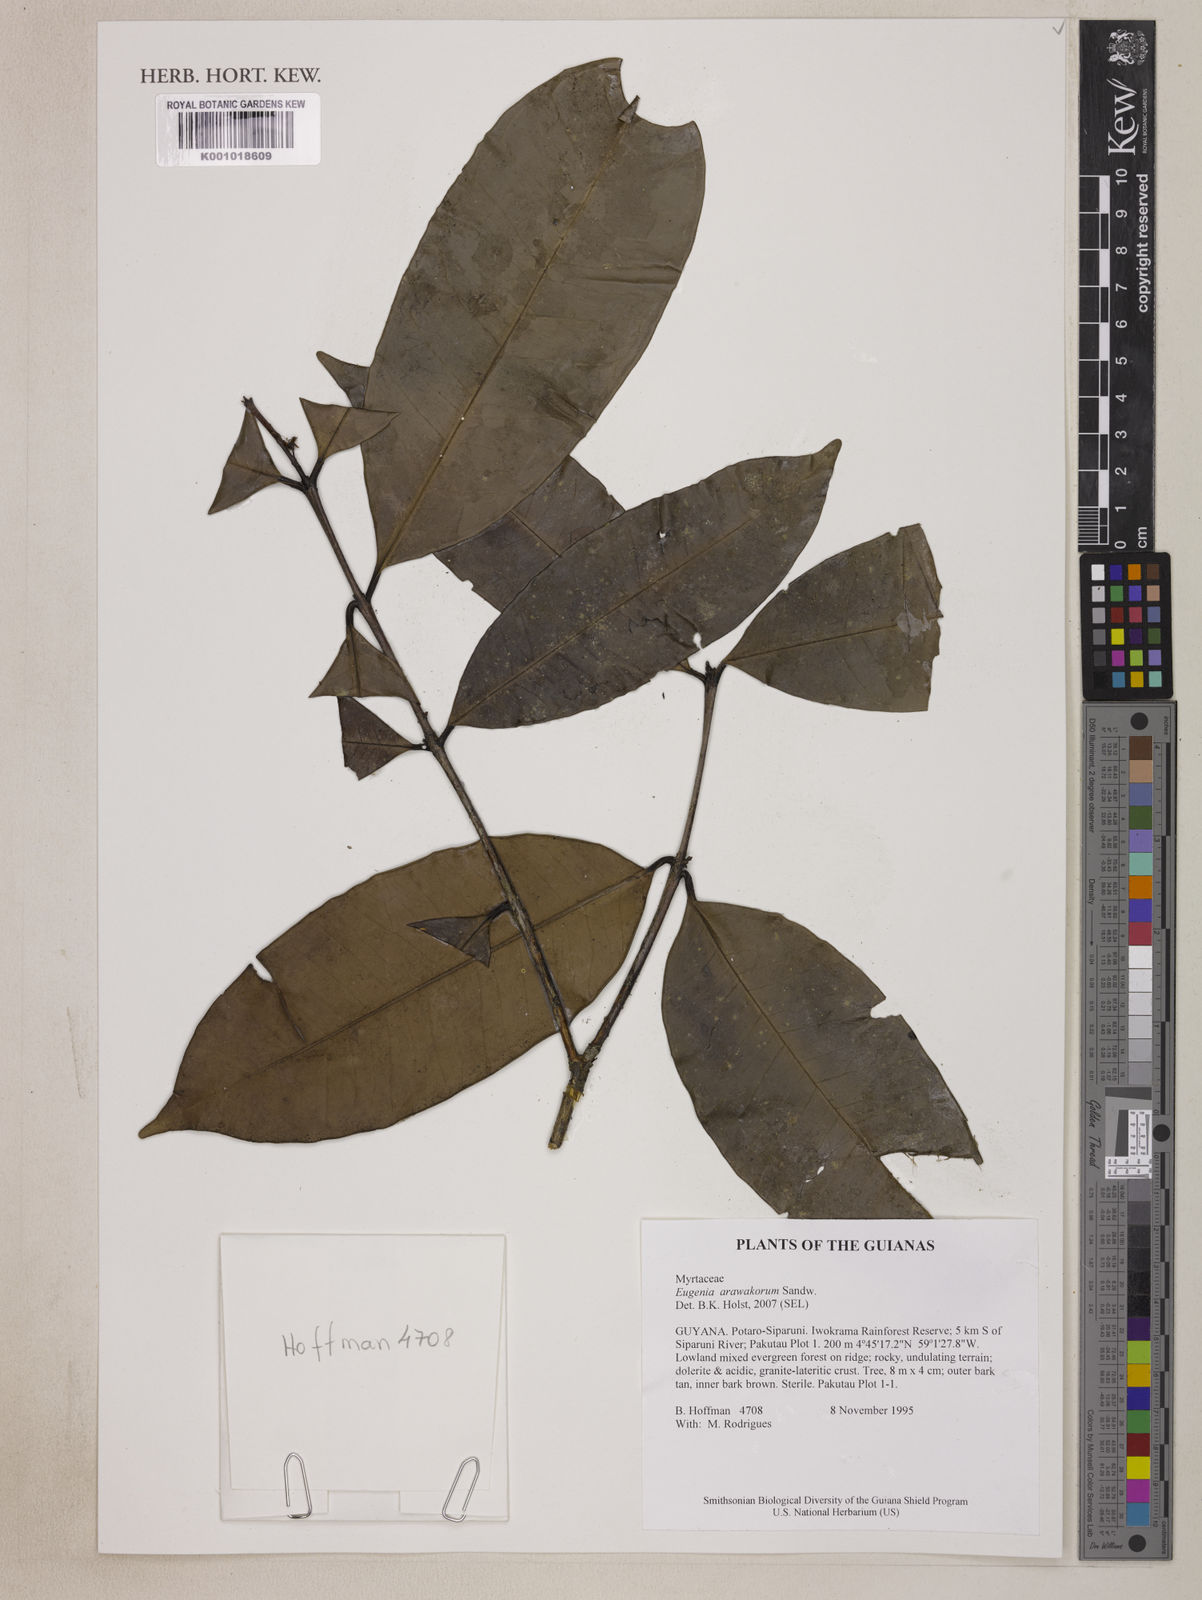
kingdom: Plantae
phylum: Tracheophyta
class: Magnoliopsida
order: Myrtales
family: Myrtaceae
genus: Eugenia
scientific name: Eugenia arawakorum
